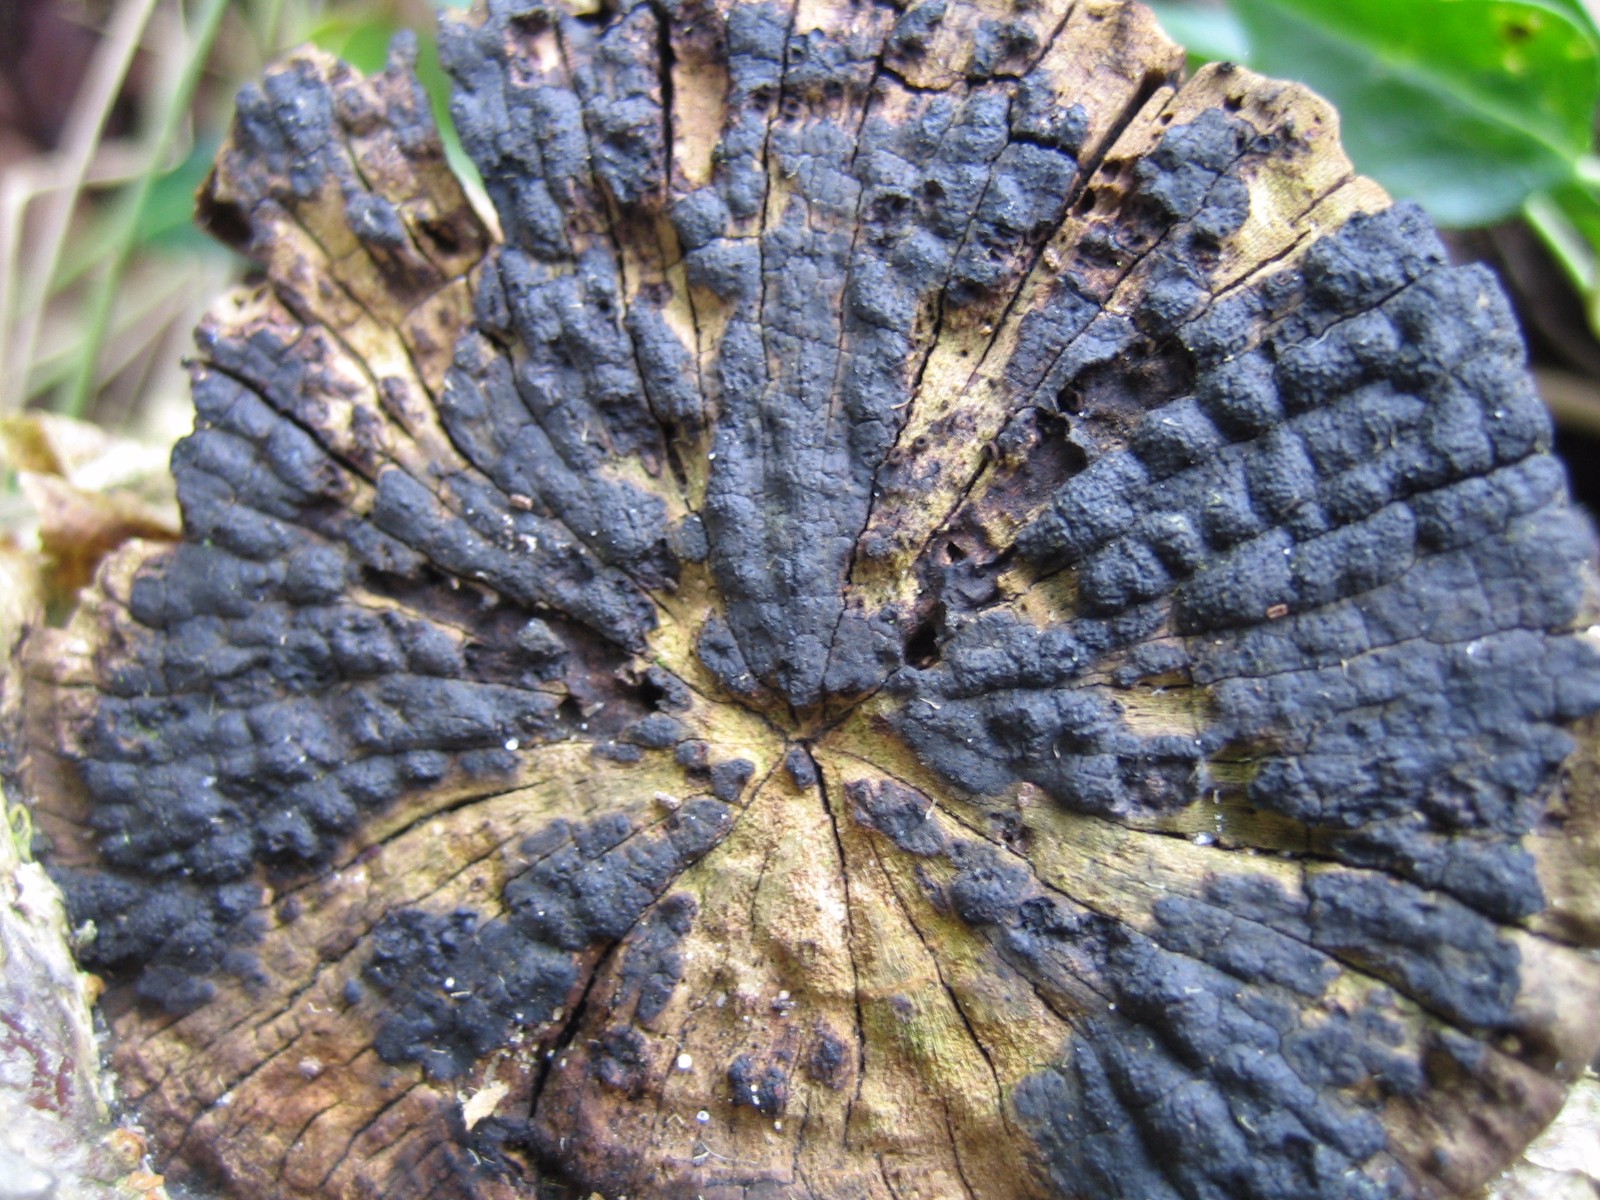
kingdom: Fungi
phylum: Ascomycota
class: Sordariomycetes
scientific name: Sordariomycetes
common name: kernesvampklassen
